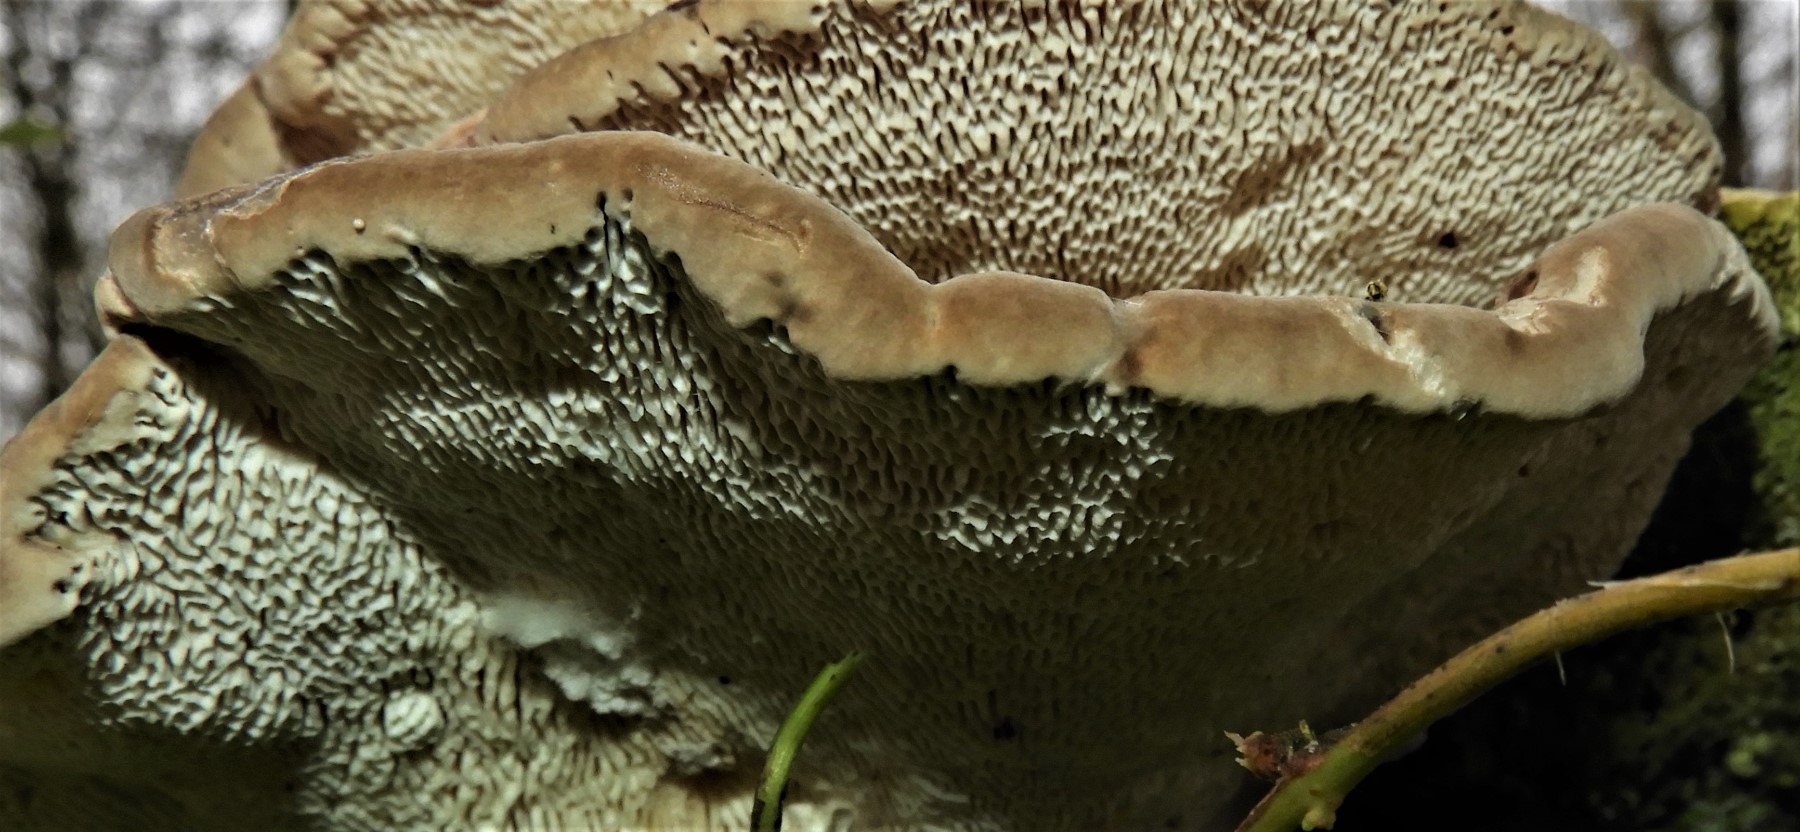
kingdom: Fungi
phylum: Basidiomycota
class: Agaricomycetes
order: Polyporales
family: Polyporaceae
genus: Trametes
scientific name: Trametes gibbosa
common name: puklet læderporesvamp
